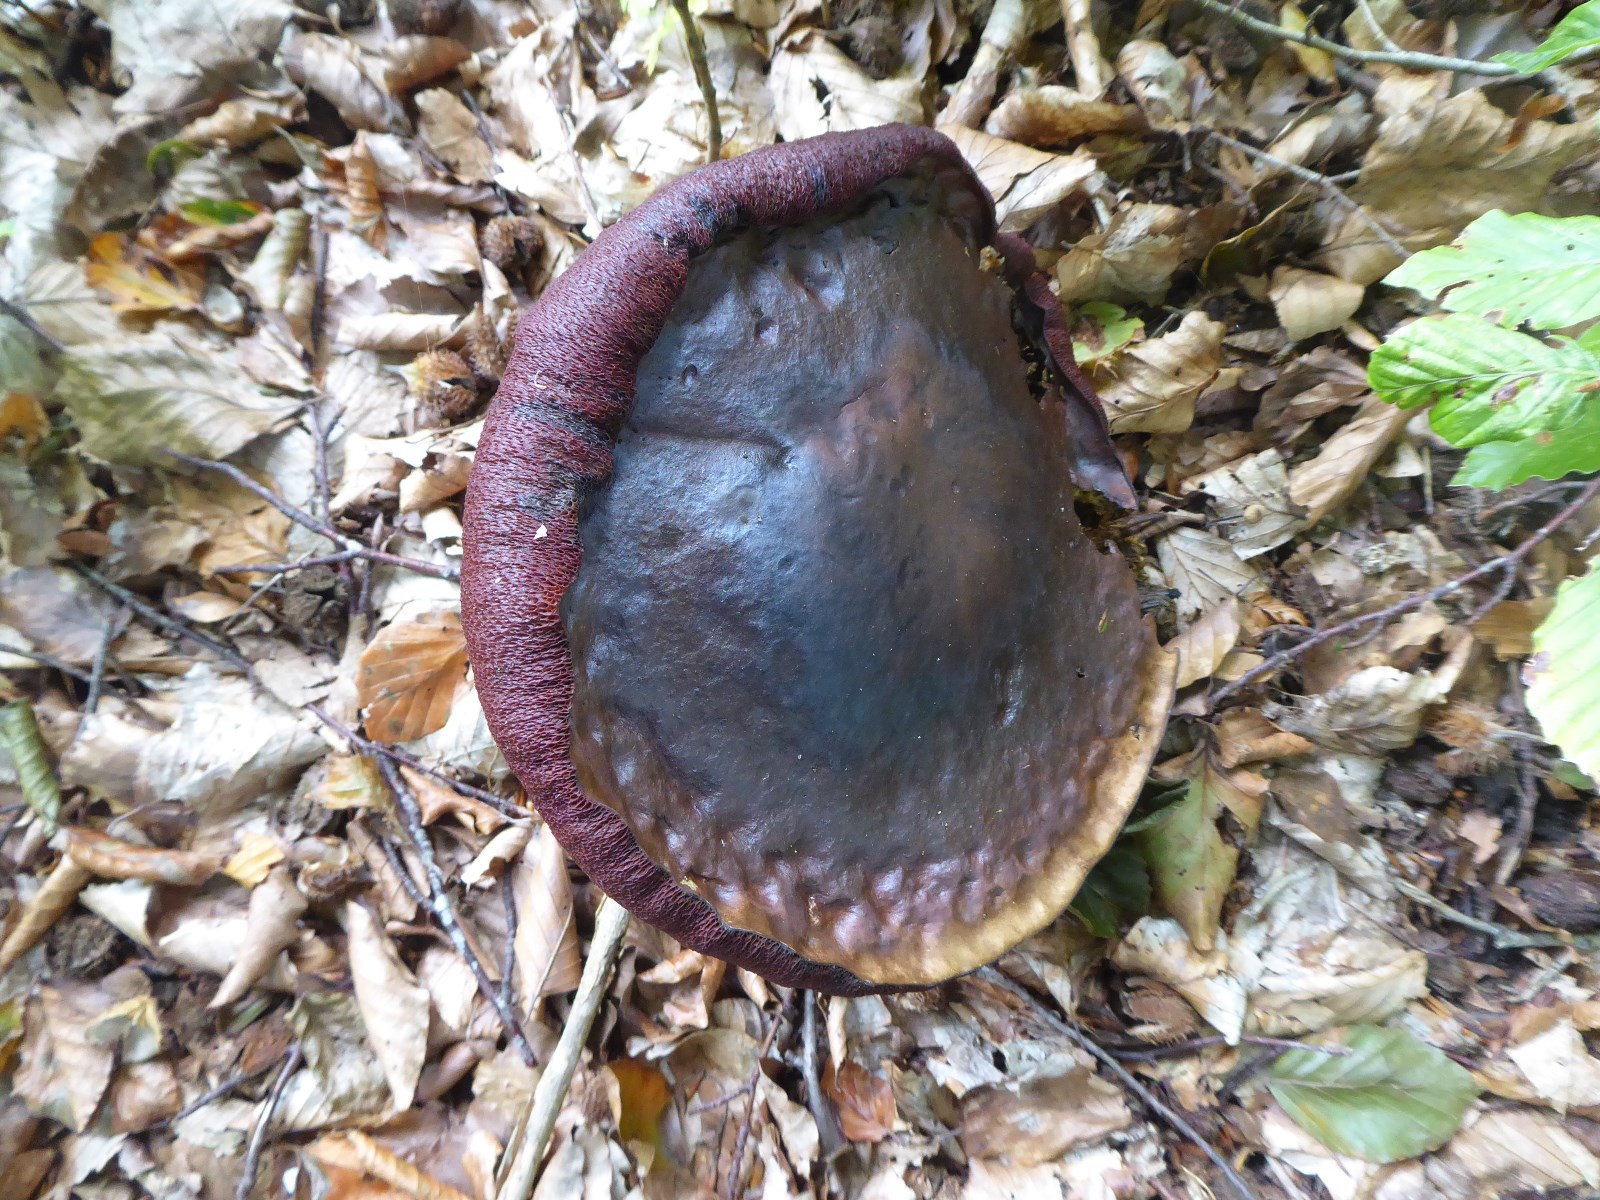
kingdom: Fungi
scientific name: Fungi
